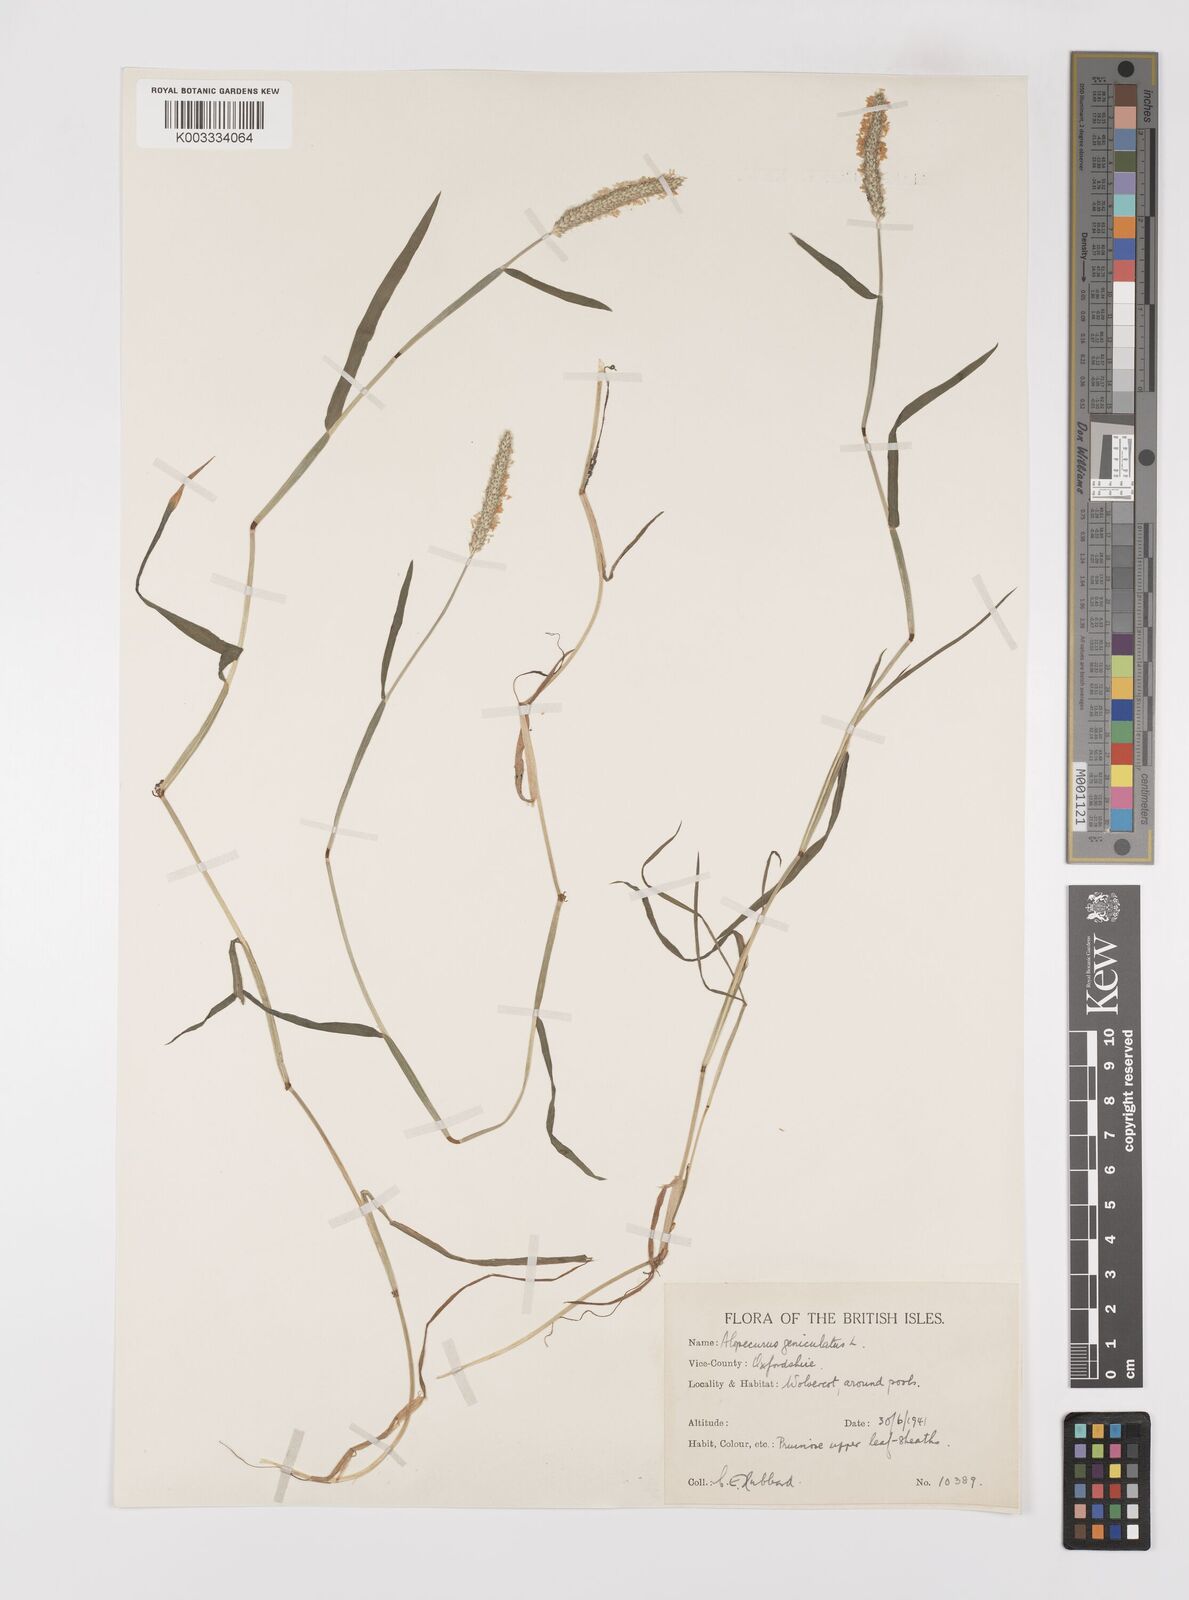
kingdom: Plantae
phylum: Tracheophyta
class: Liliopsida
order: Poales
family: Poaceae
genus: Alopecurus
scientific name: Alopecurus geniculatus
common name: Water foxtail
